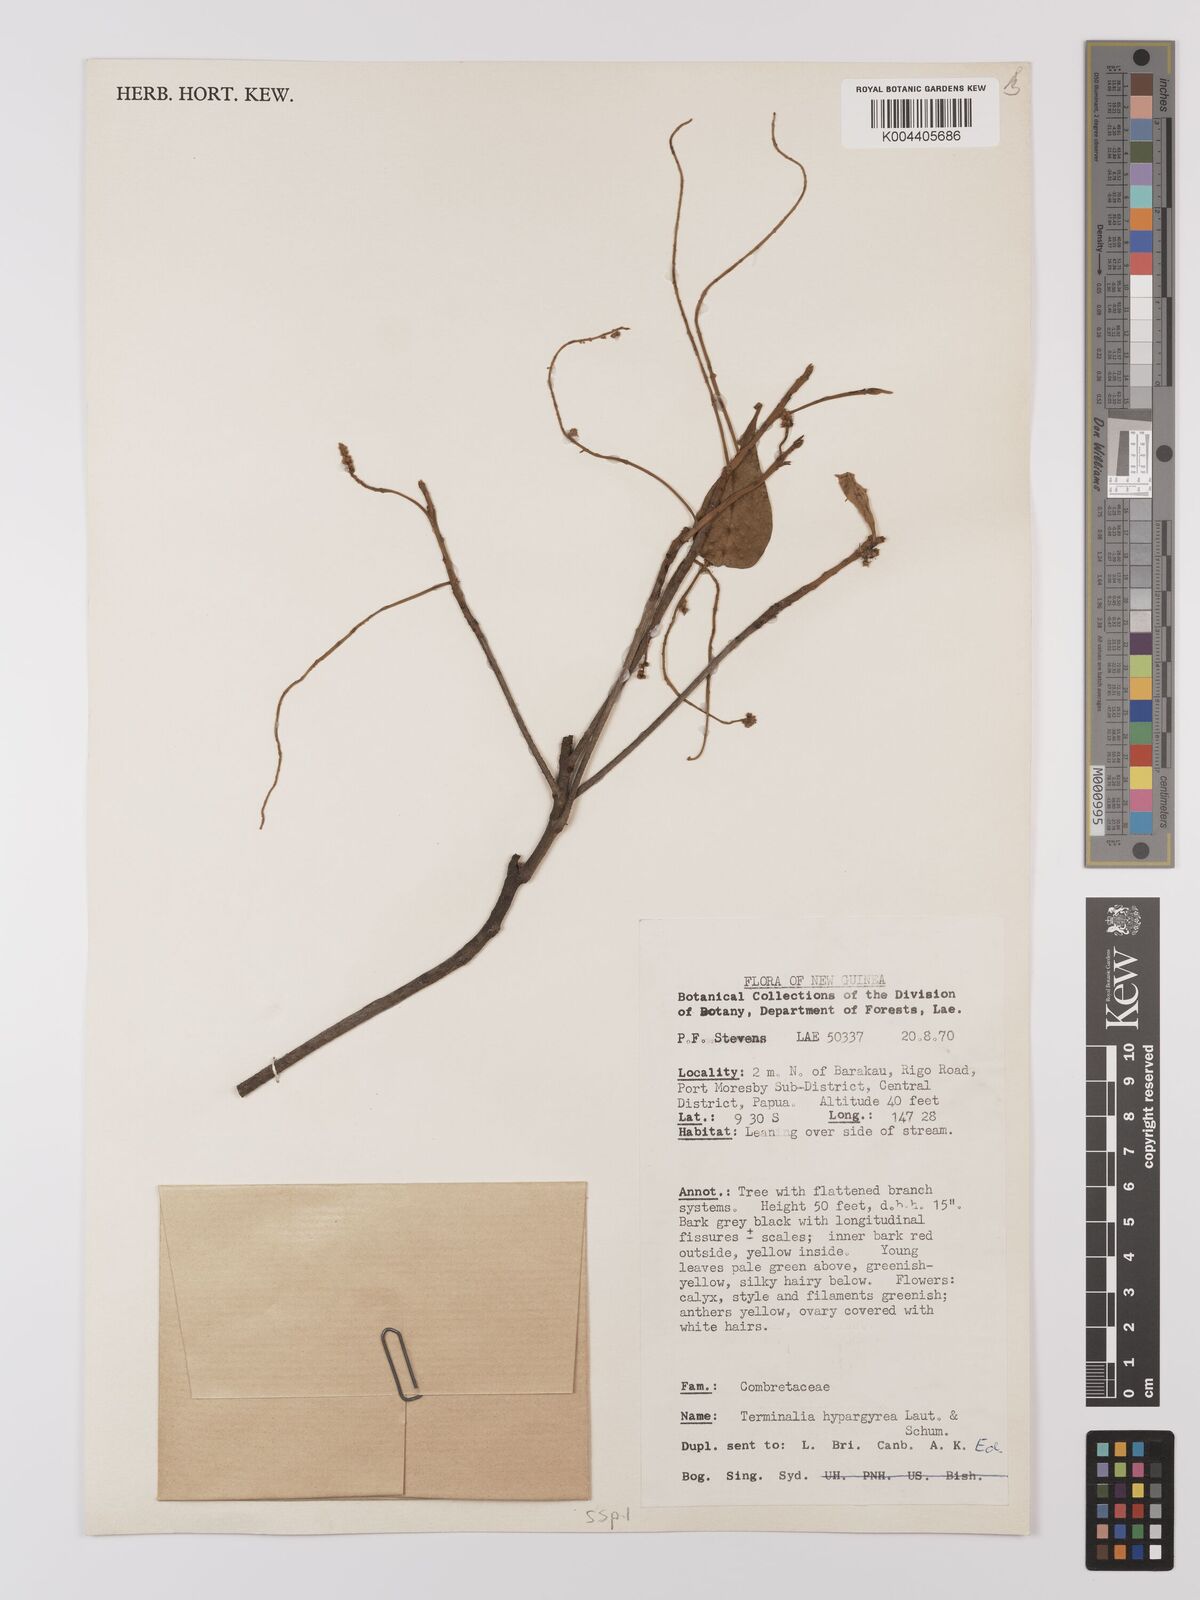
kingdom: Plantae
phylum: Tracheophyta
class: Magnoliopsida
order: Myrtales
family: Combretaceae
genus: Terminalia
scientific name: Terminalia microcarpa
